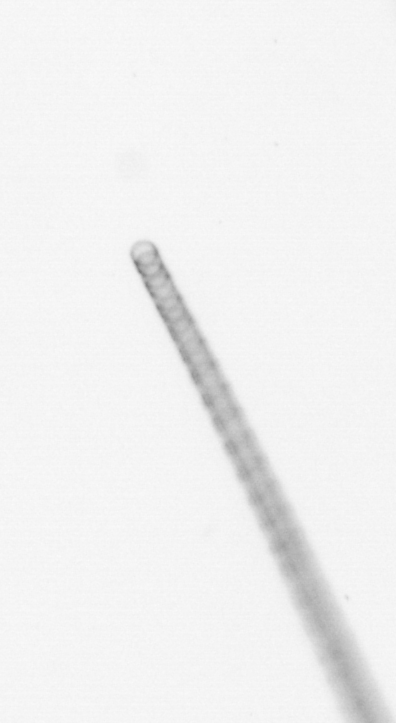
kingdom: Chromista
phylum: Ochrophyta
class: Bacillariophyceae
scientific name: Bacillariophyceae
